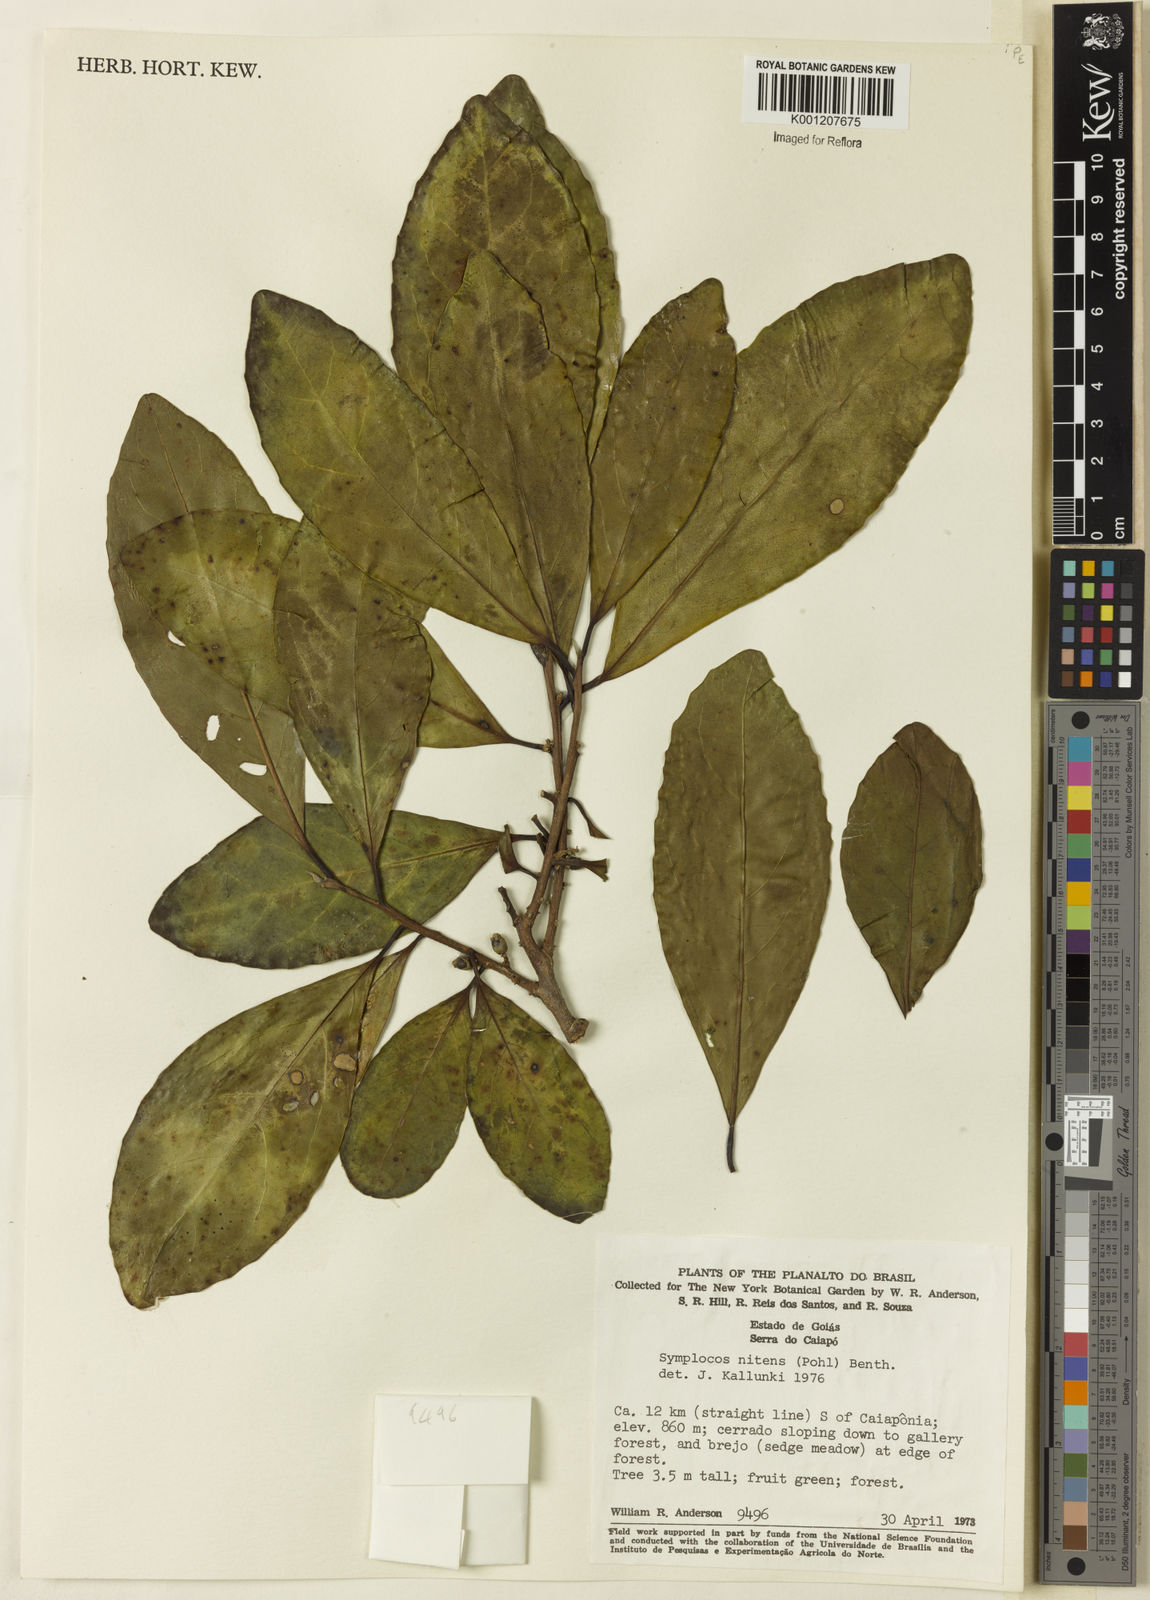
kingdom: Plantae
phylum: Tracheophyta
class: Magnoliopsida
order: Ericales
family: Symplocaceae
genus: Symplocos
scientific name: Symplocos nitens
